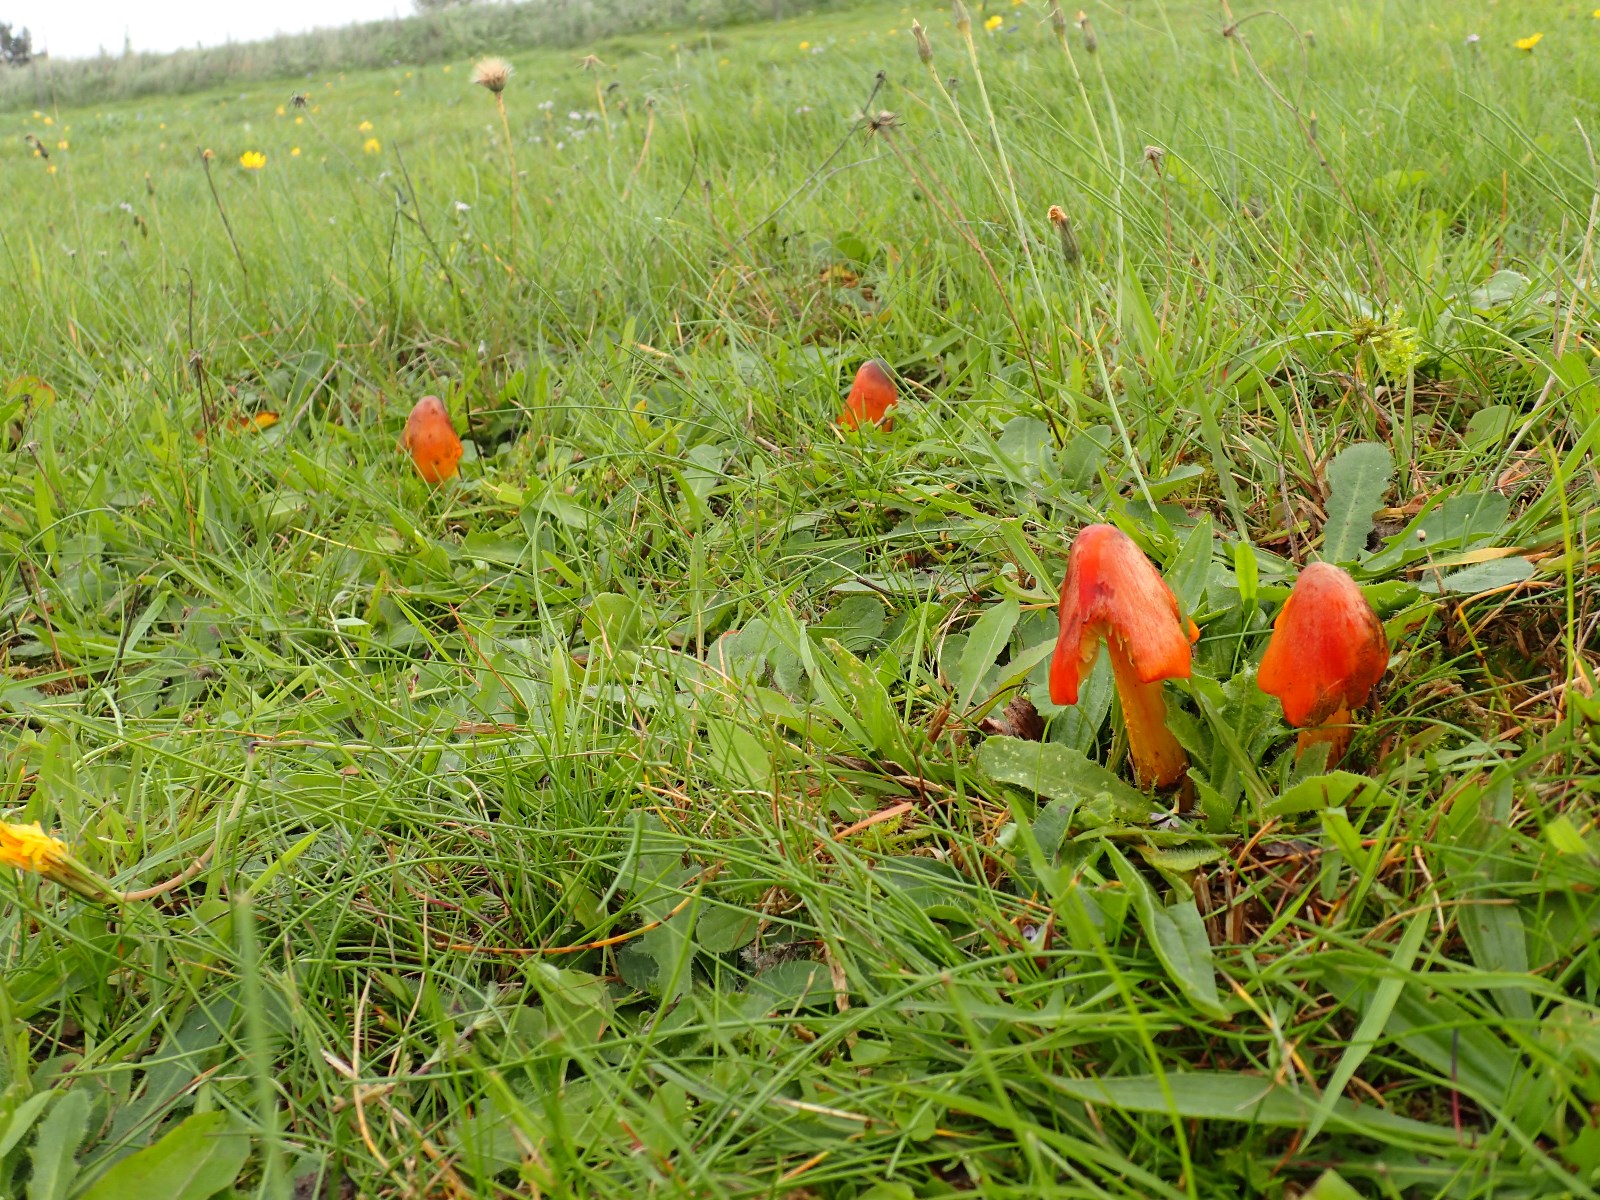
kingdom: Fungi
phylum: Basidiomycota
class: Agaricomycetes
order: Agaricales
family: Hygrophoraceae
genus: Hygrocybe
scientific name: Hygrocybe conica
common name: kegle-vokshat
